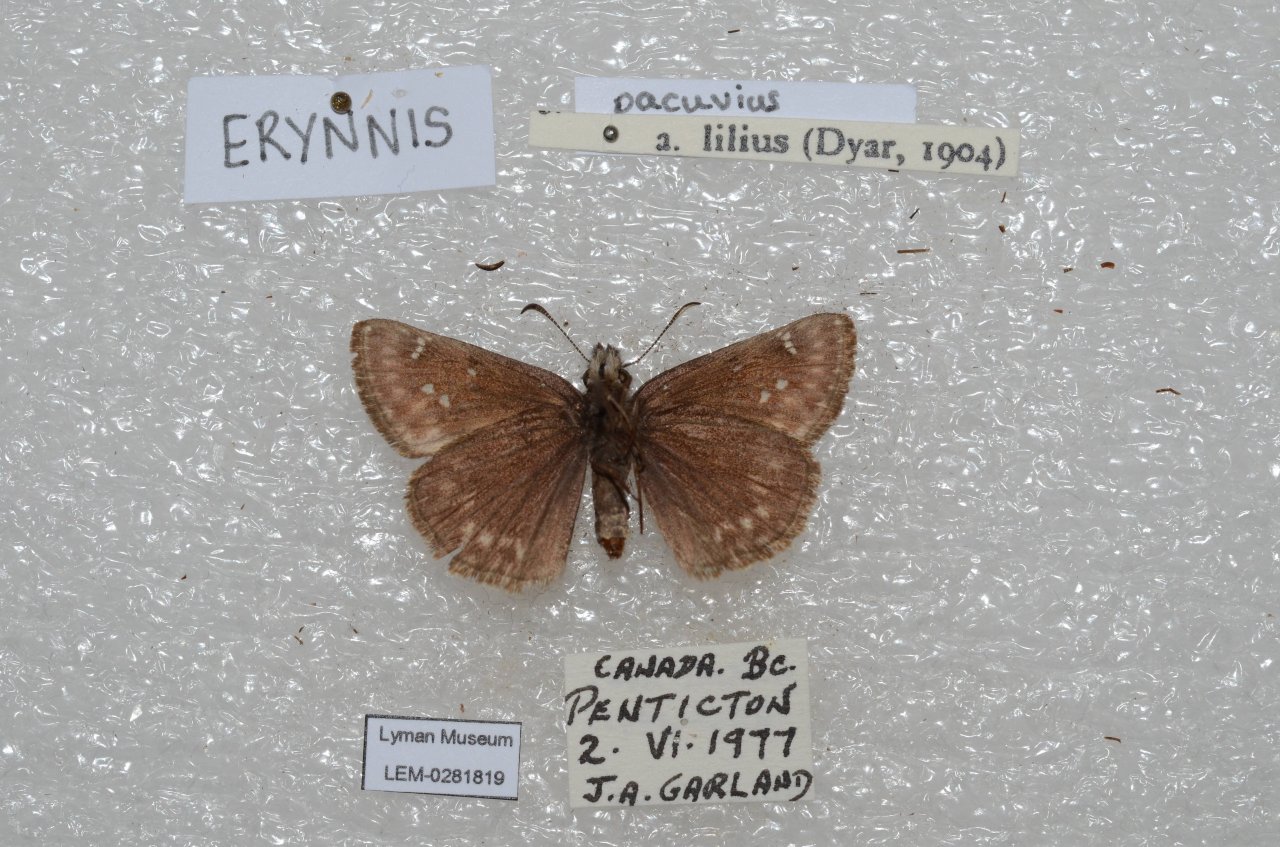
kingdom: Animalia
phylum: Arthropoda
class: Insecta
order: Lepidoptera
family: Hesperiidae
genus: Erynnis
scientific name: Erynnis pacuvius
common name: Pacuvius Duskywing
